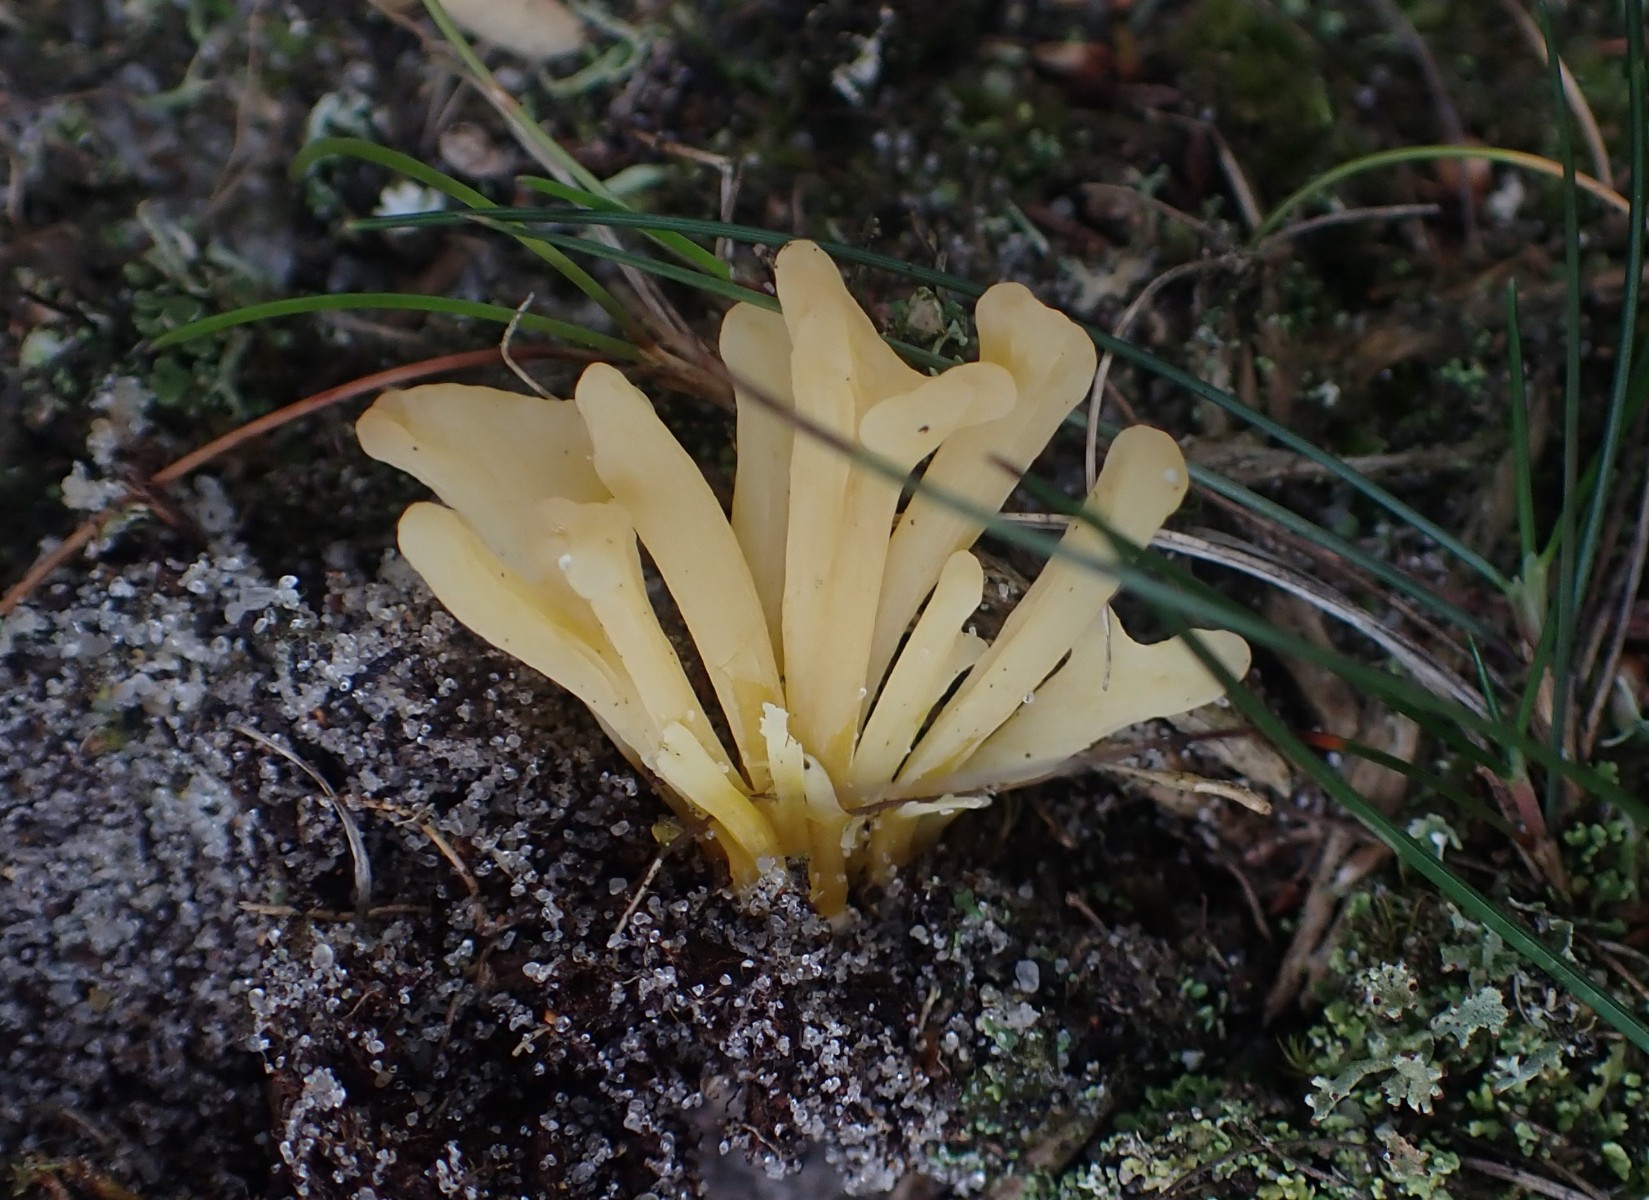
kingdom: Fungi
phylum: Basidiomycota
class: Agaricomycetes
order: Agaricales
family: Clavariaceae
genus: Clavaria
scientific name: Clavaria argillacea
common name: lerfarvet køllesvamp
